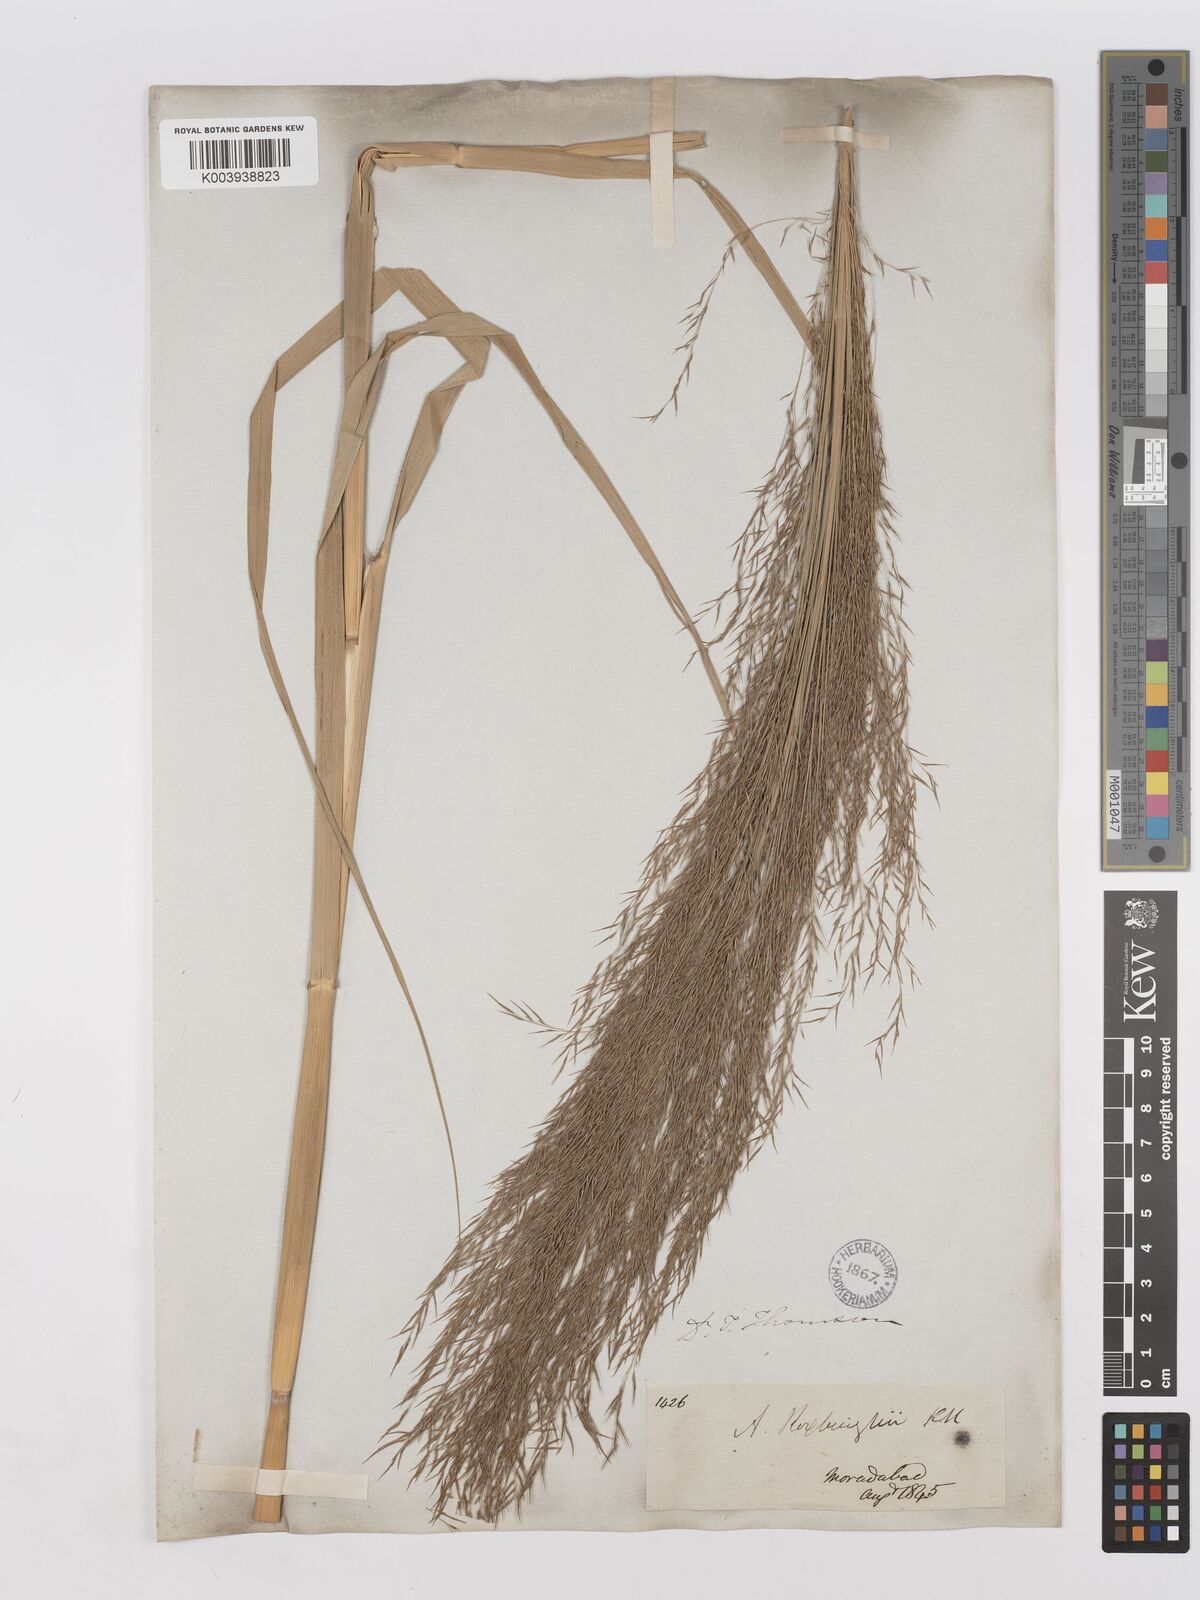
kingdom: Plantae
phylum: Tracheophyta
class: Liliopsida
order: Poales
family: Poaceae
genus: Phragmites
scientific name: Phragmites karka
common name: Tropical reed
